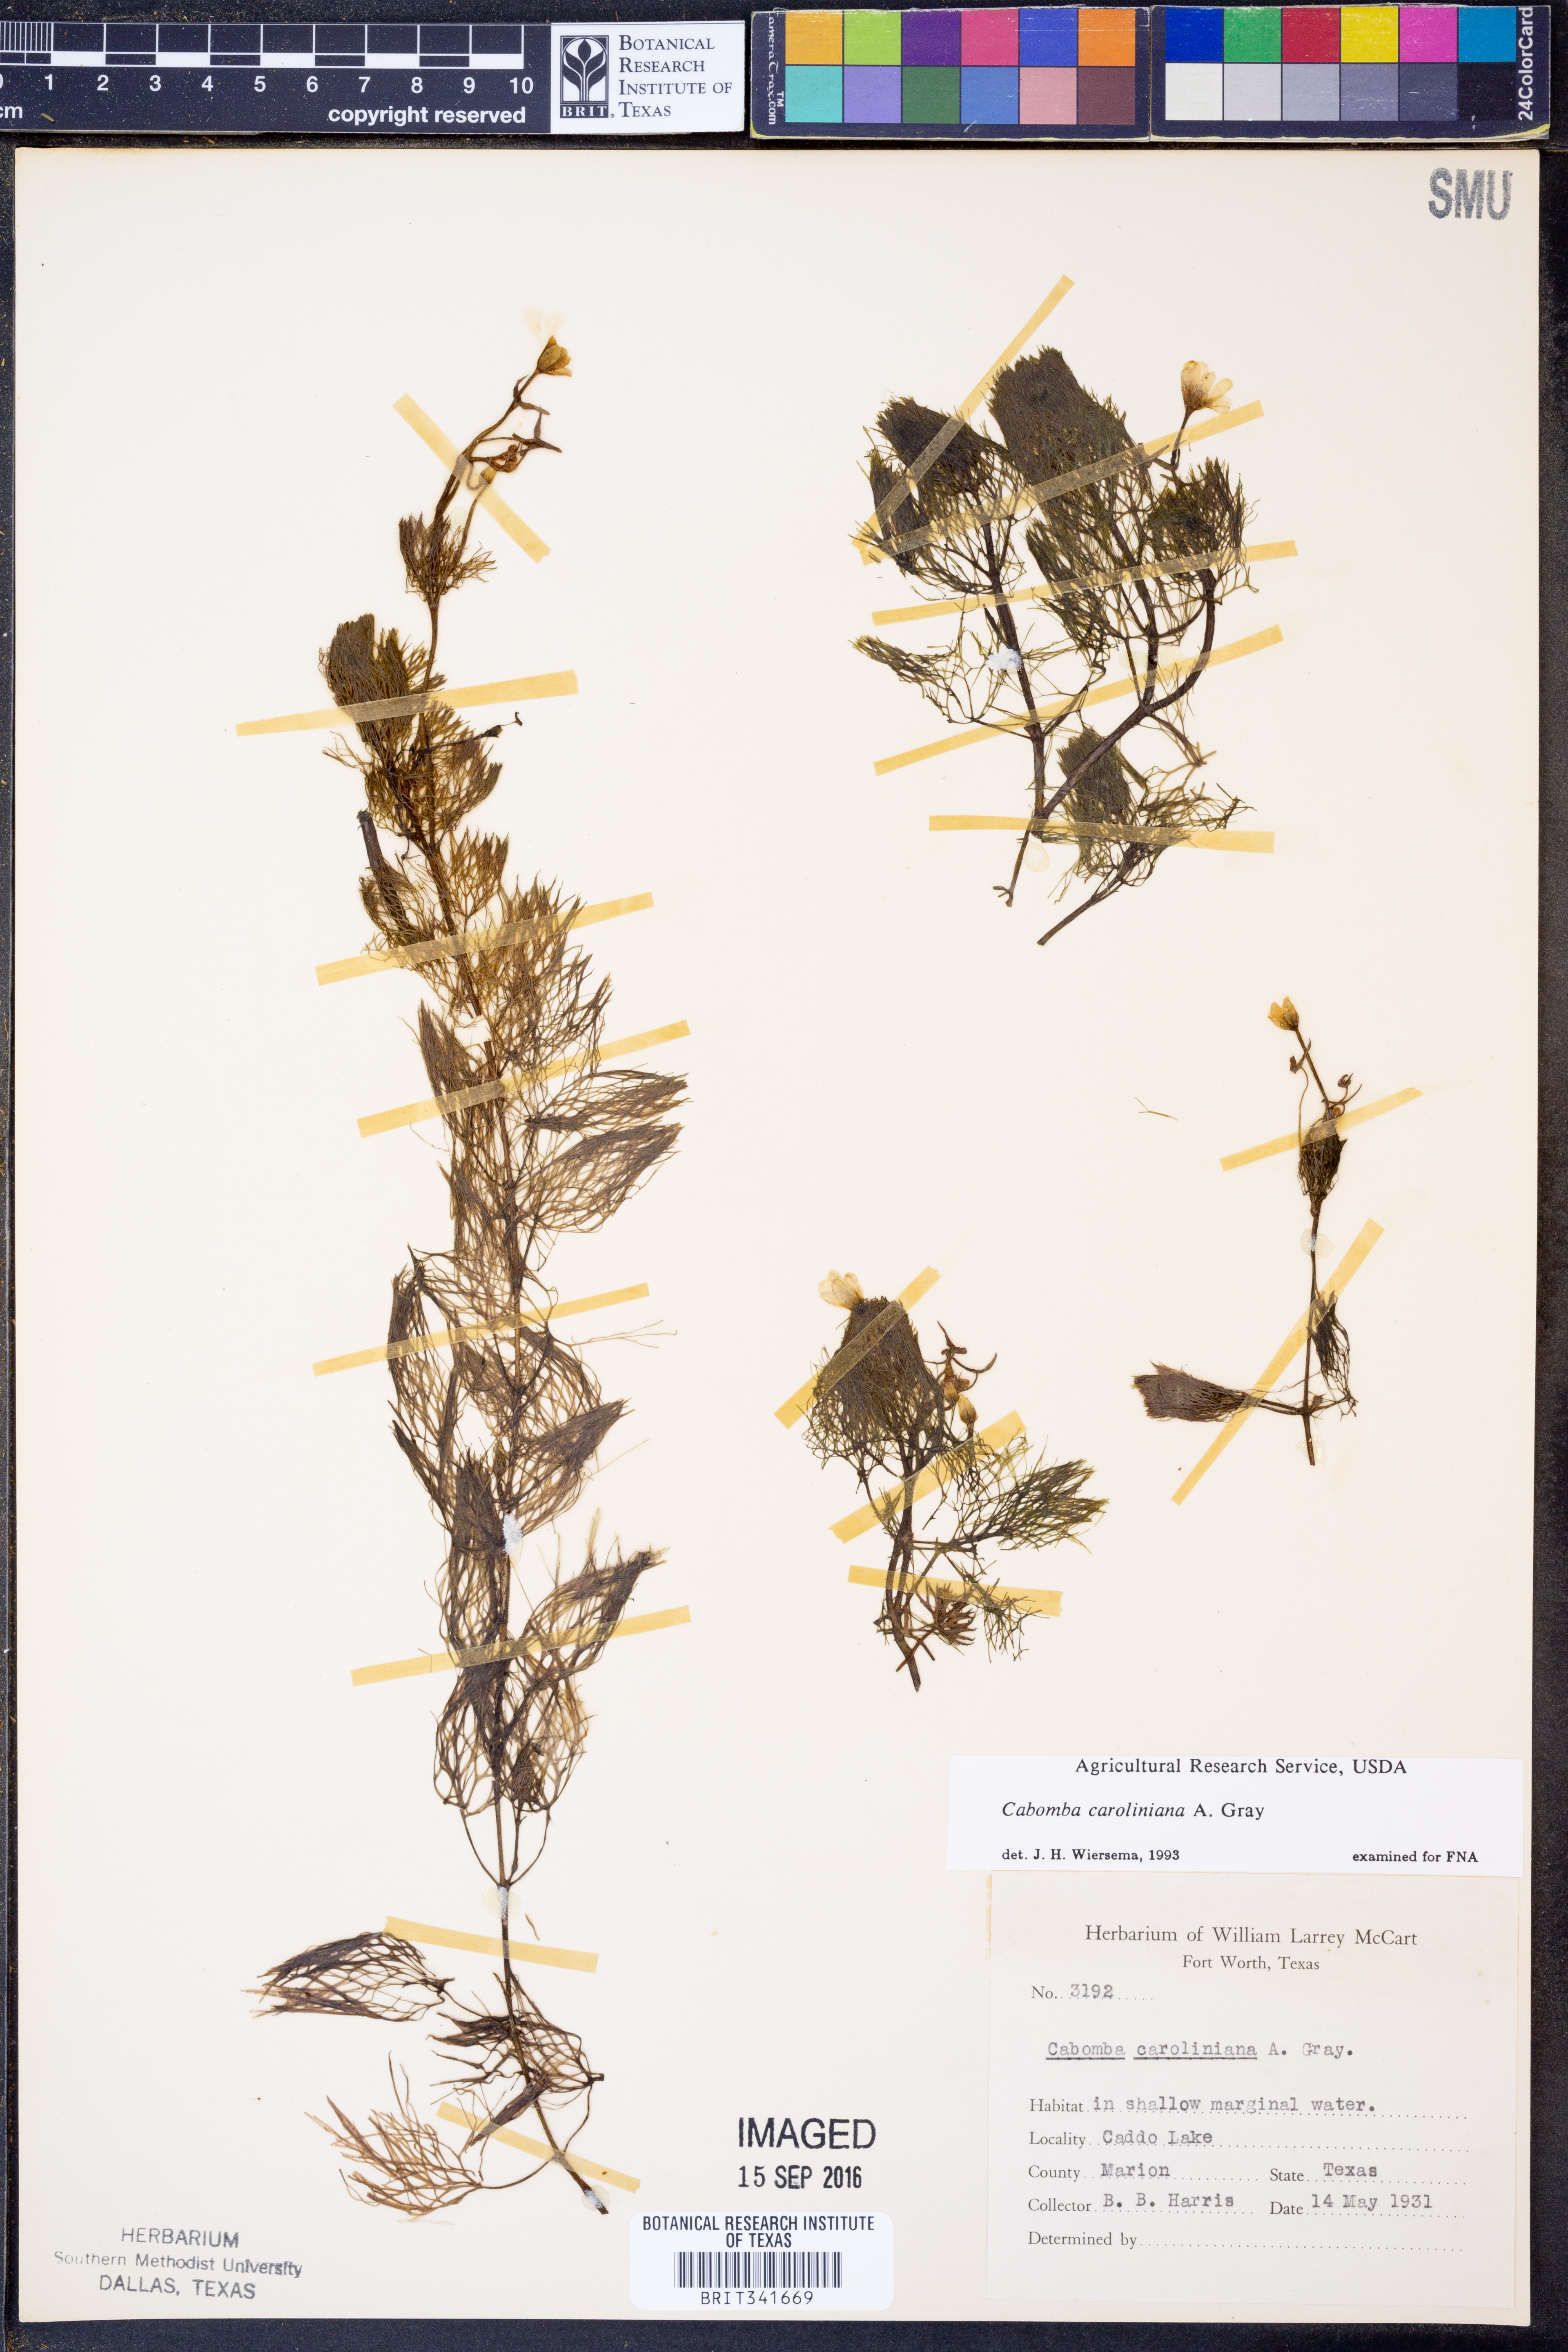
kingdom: Plantae
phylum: Tracheophyta
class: Magnoliopsida
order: Nymphaeales
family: Cabombaceae
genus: Cabomba
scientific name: Cabomba caroliniana
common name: Fanwort
